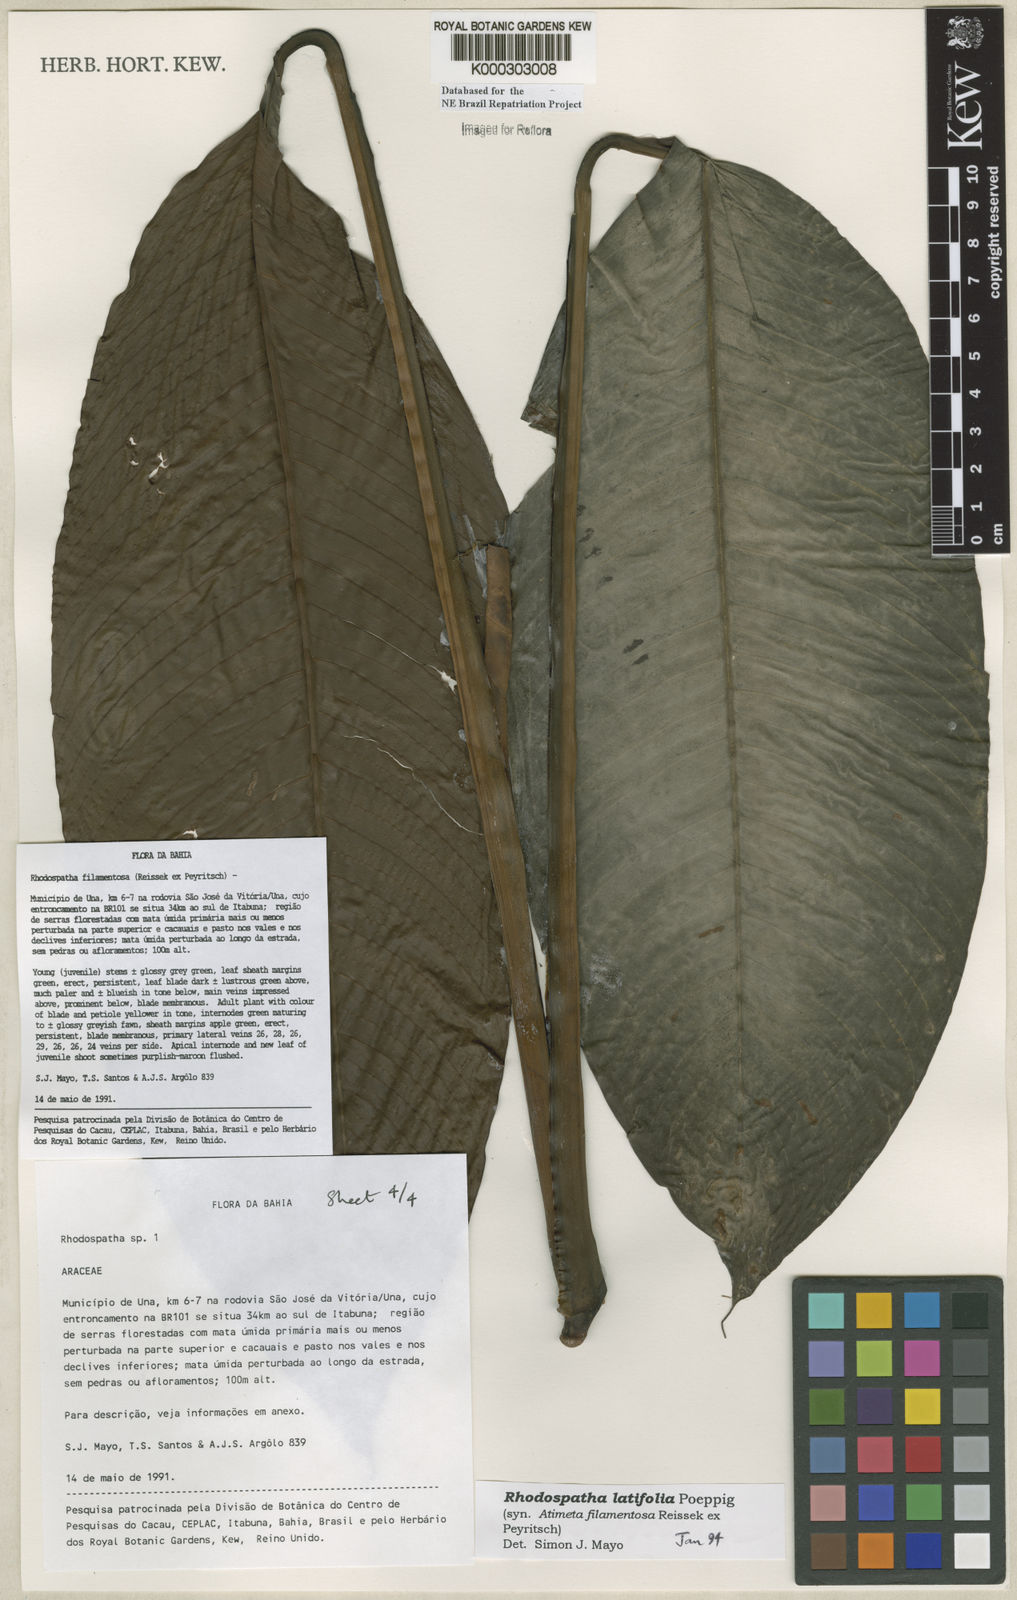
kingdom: Plantae
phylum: Tracheophyta
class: Liliopsida
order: Alismatales
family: Araceae
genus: Rhodospatha
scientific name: Rhodospatha latifolia
